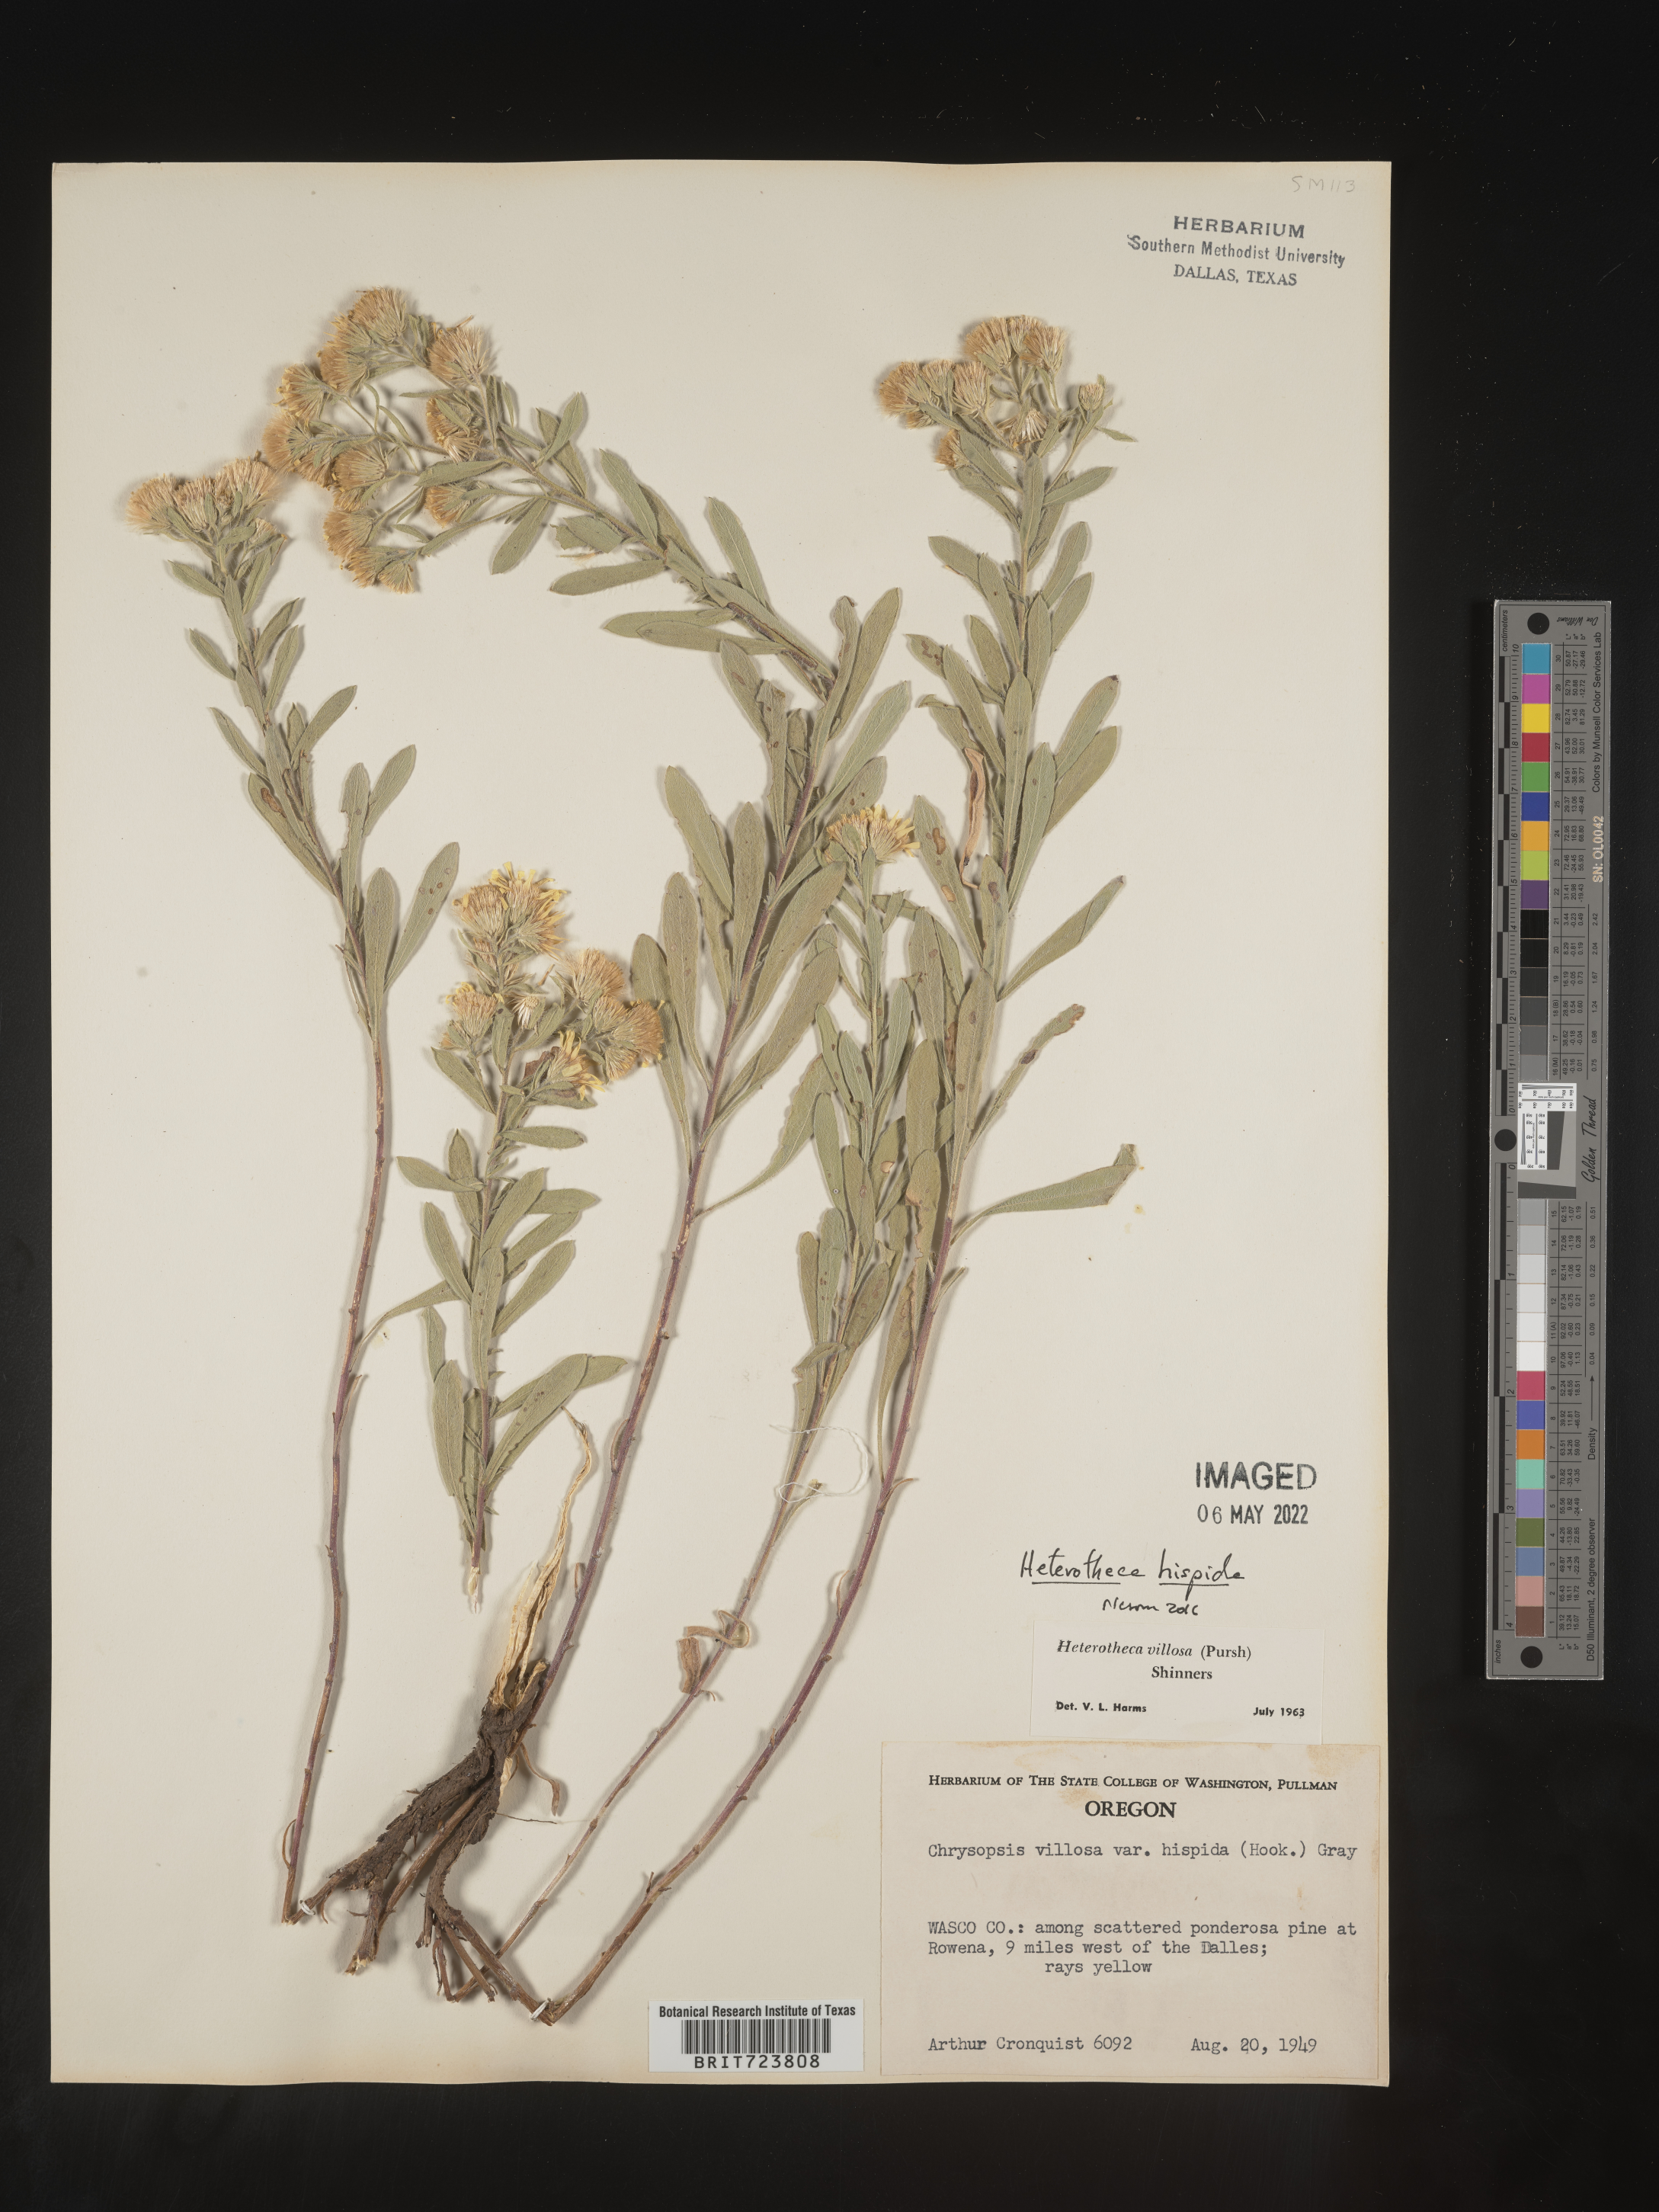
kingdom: Plantae
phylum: Tracheophyta
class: Magnoliopsida
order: Asterales
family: Asteraceae
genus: Heterotheca
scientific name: Heterotheca hispida
